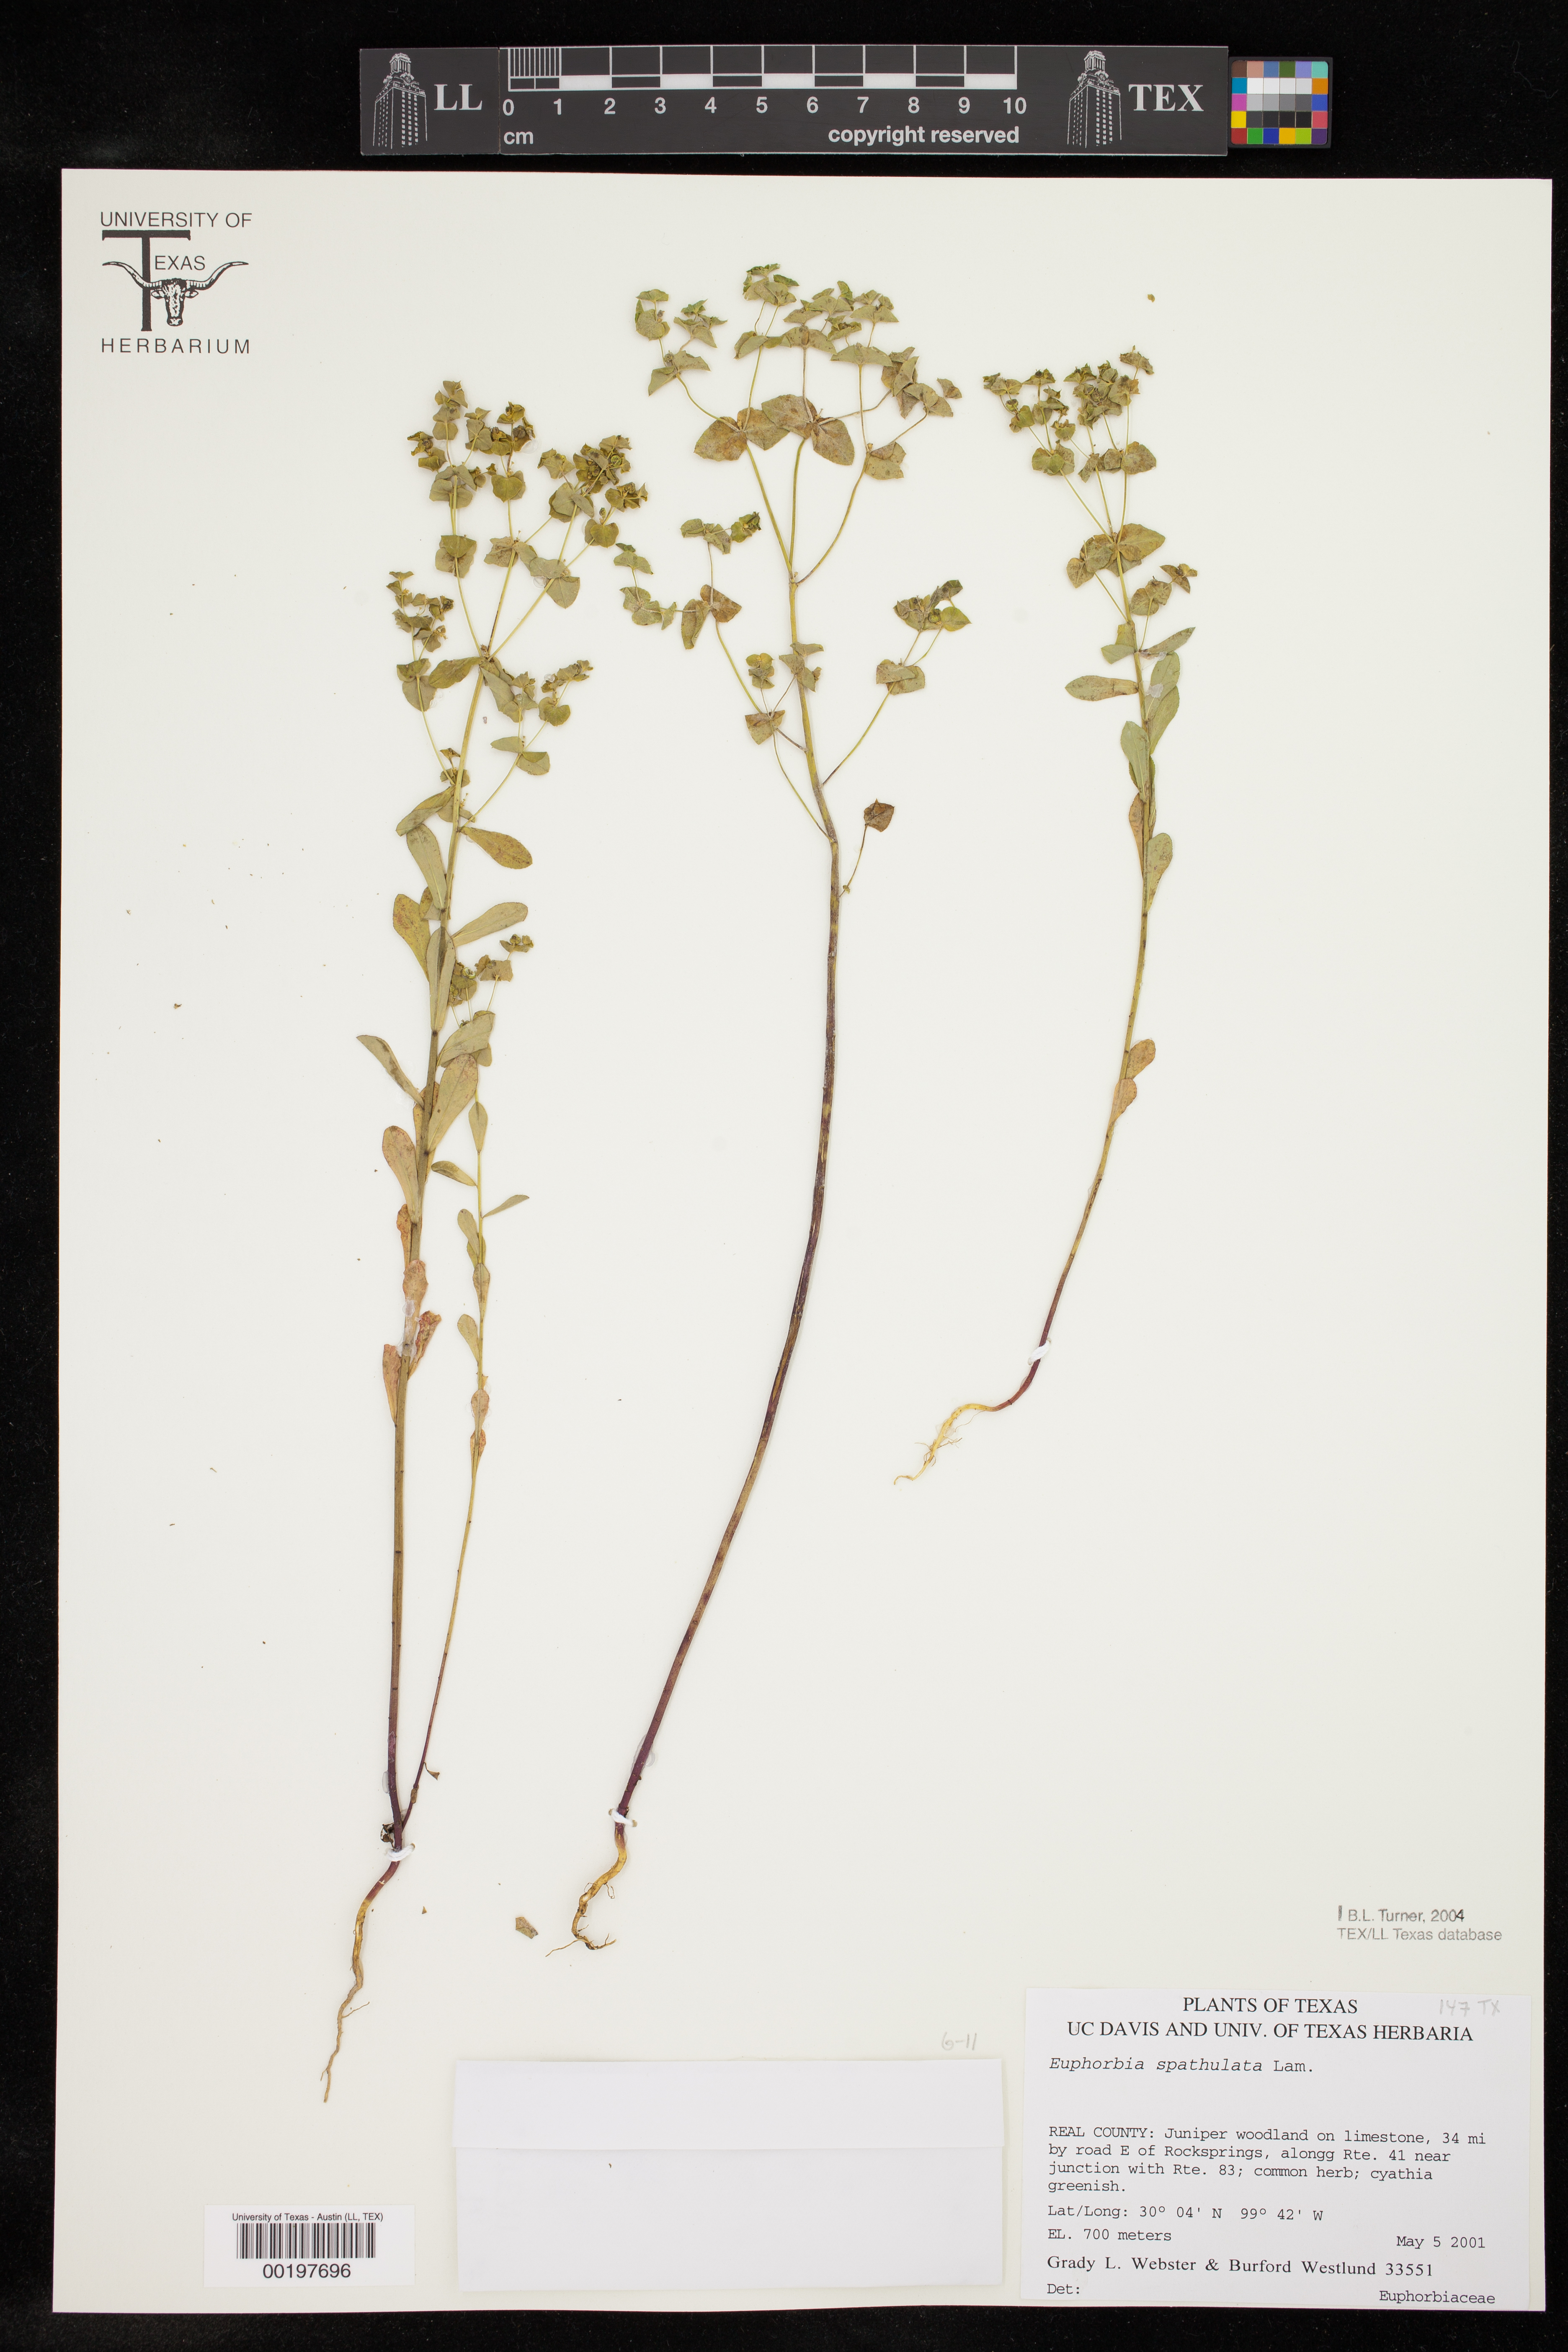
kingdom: Plantae
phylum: Tracheophyta
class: Magnoliopsida
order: Malpighiales
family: Euphorbiaceae
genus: Euphorbia
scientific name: Euphorbia spathulata
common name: Blunt spurge
